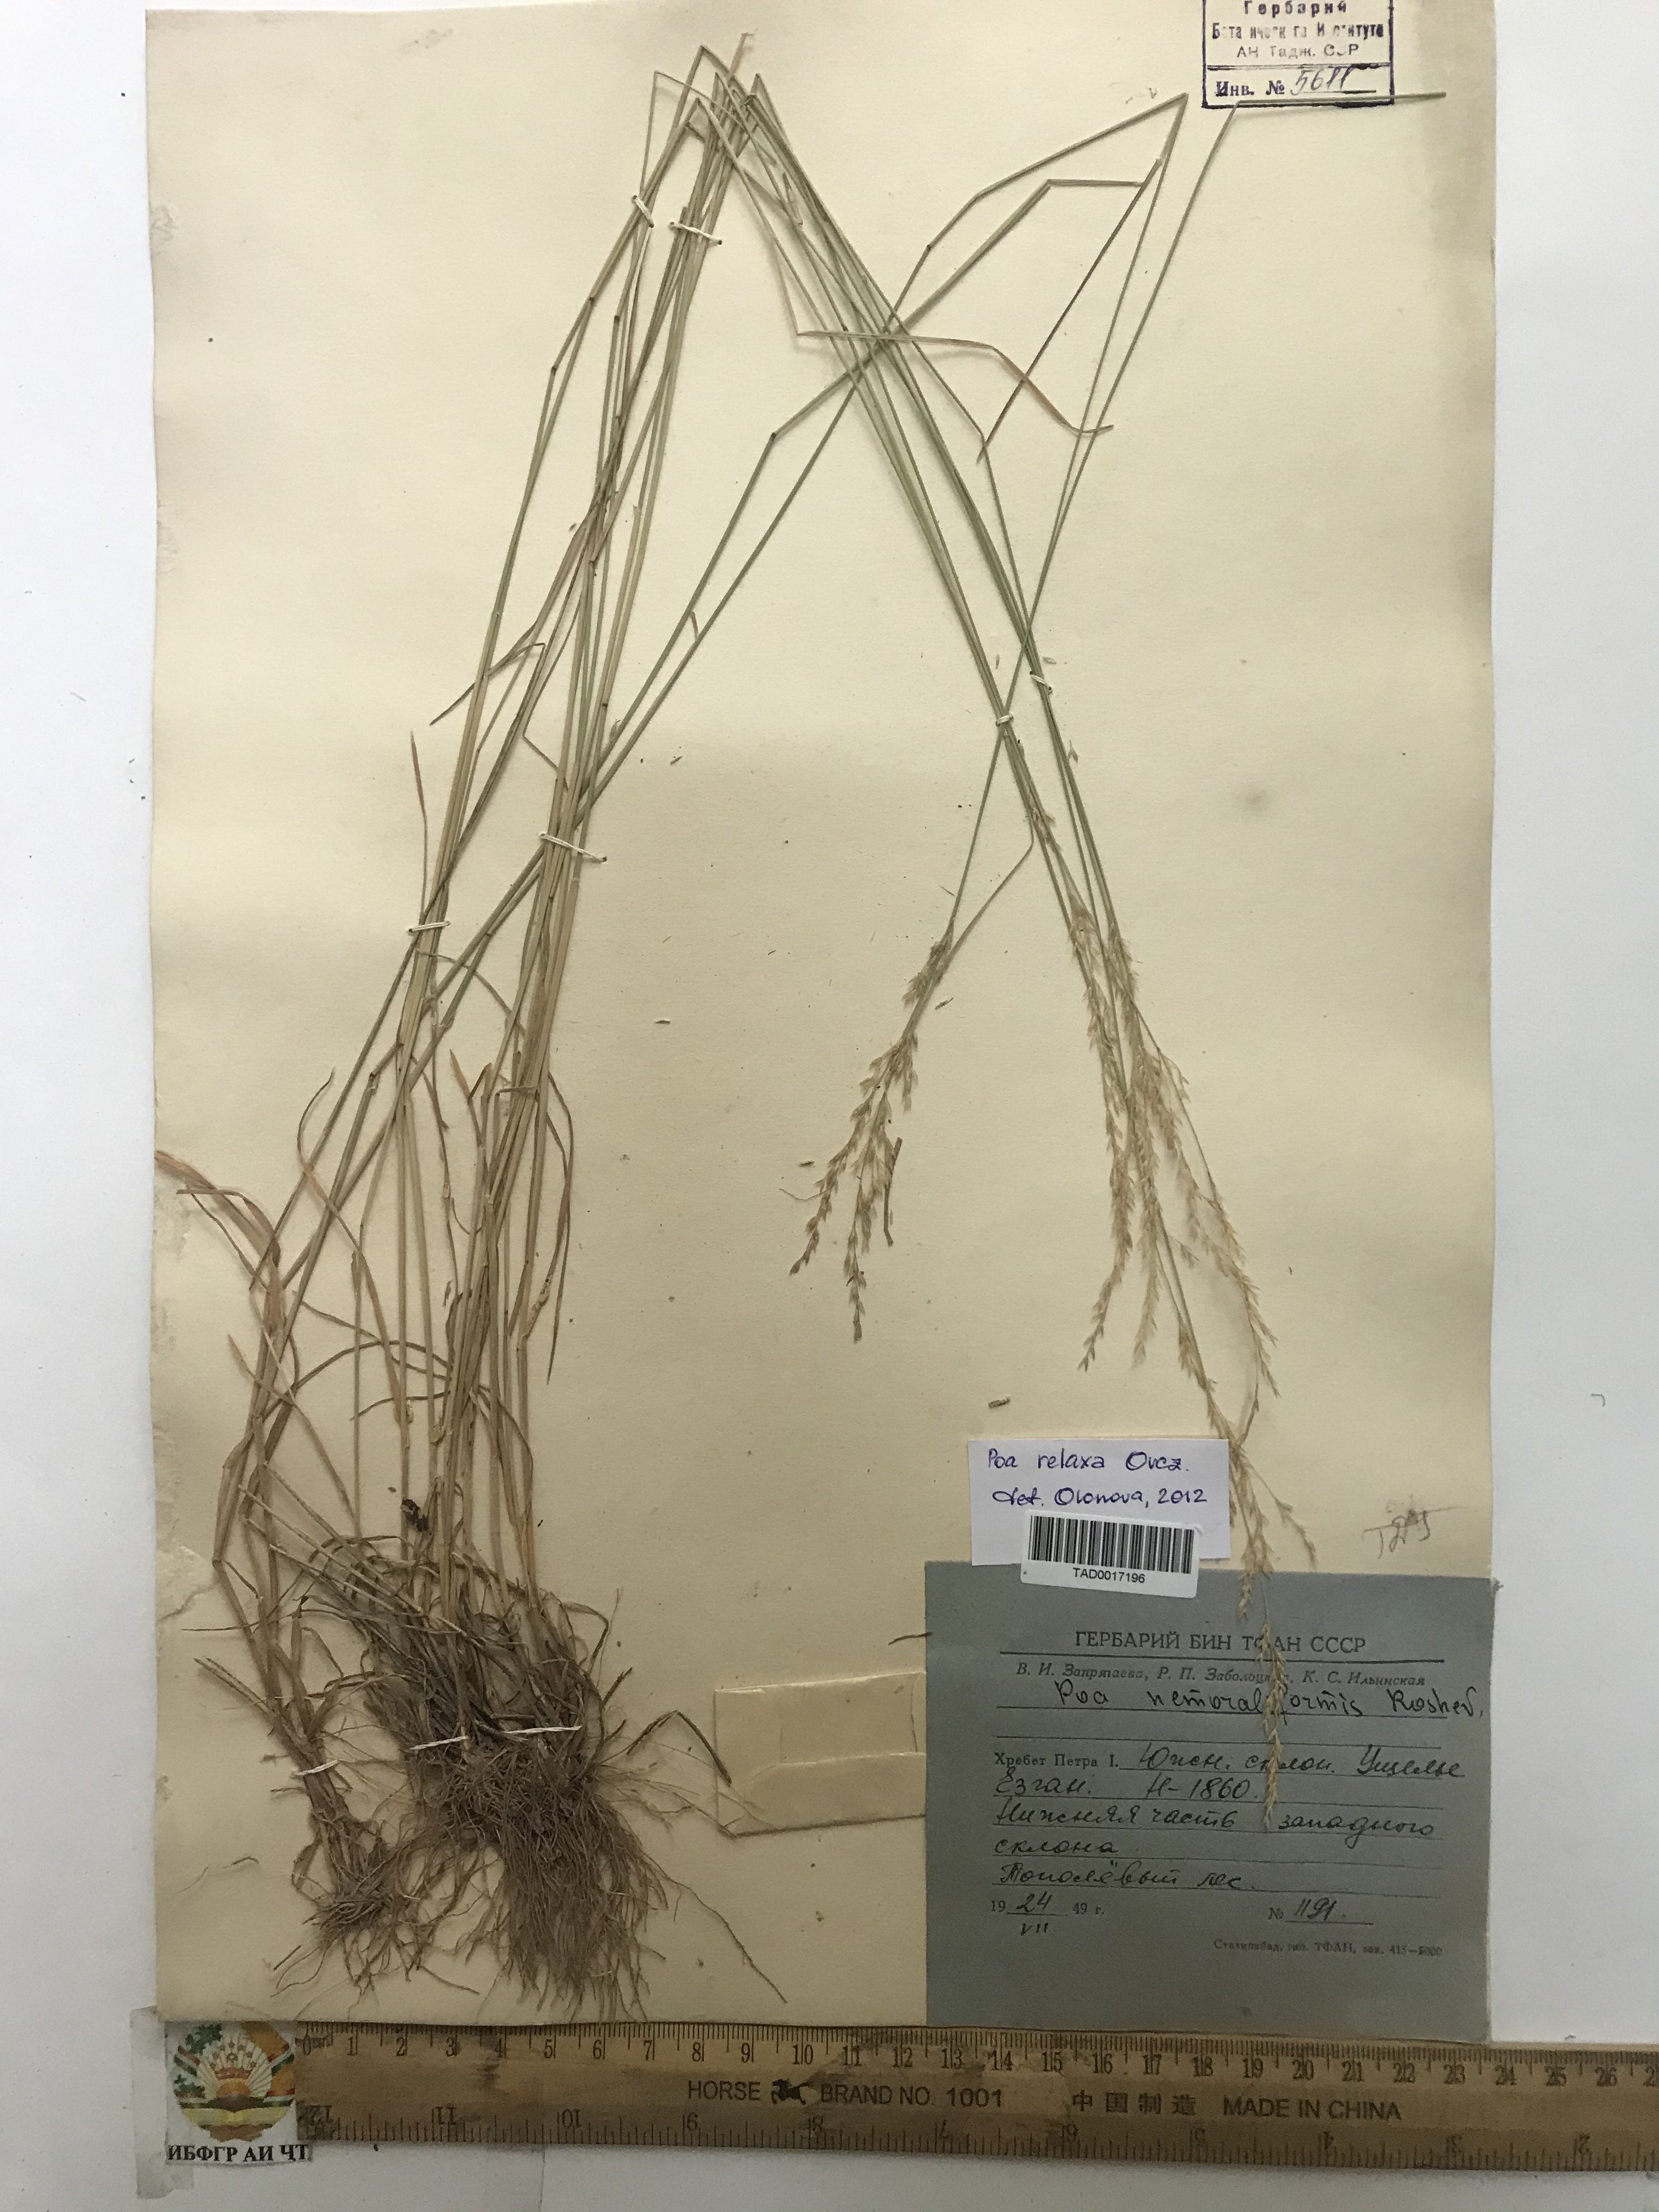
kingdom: Plantae
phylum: Tracheophyta
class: Liliopsida
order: Poales
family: Poaceae
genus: Poa
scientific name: Poa urssulensis
